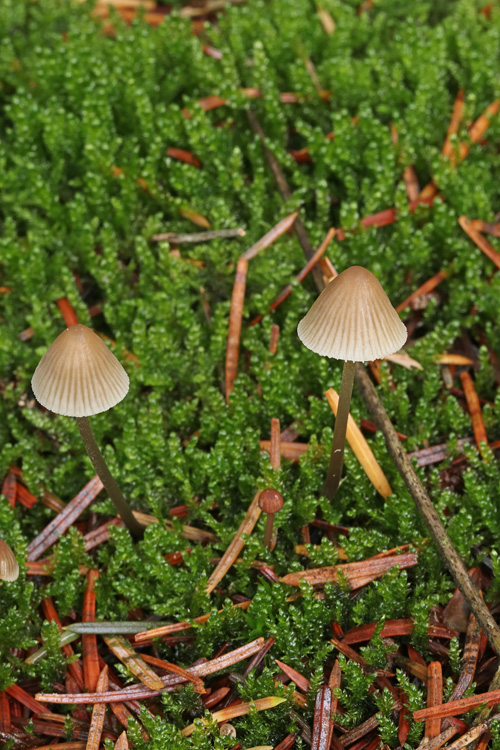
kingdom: Fungi
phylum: Basidiomycota
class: Agaricomycetes
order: Agaricales
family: Mycenaceae
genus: Mycena
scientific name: Mycena metata
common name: rødlig huesvamp
